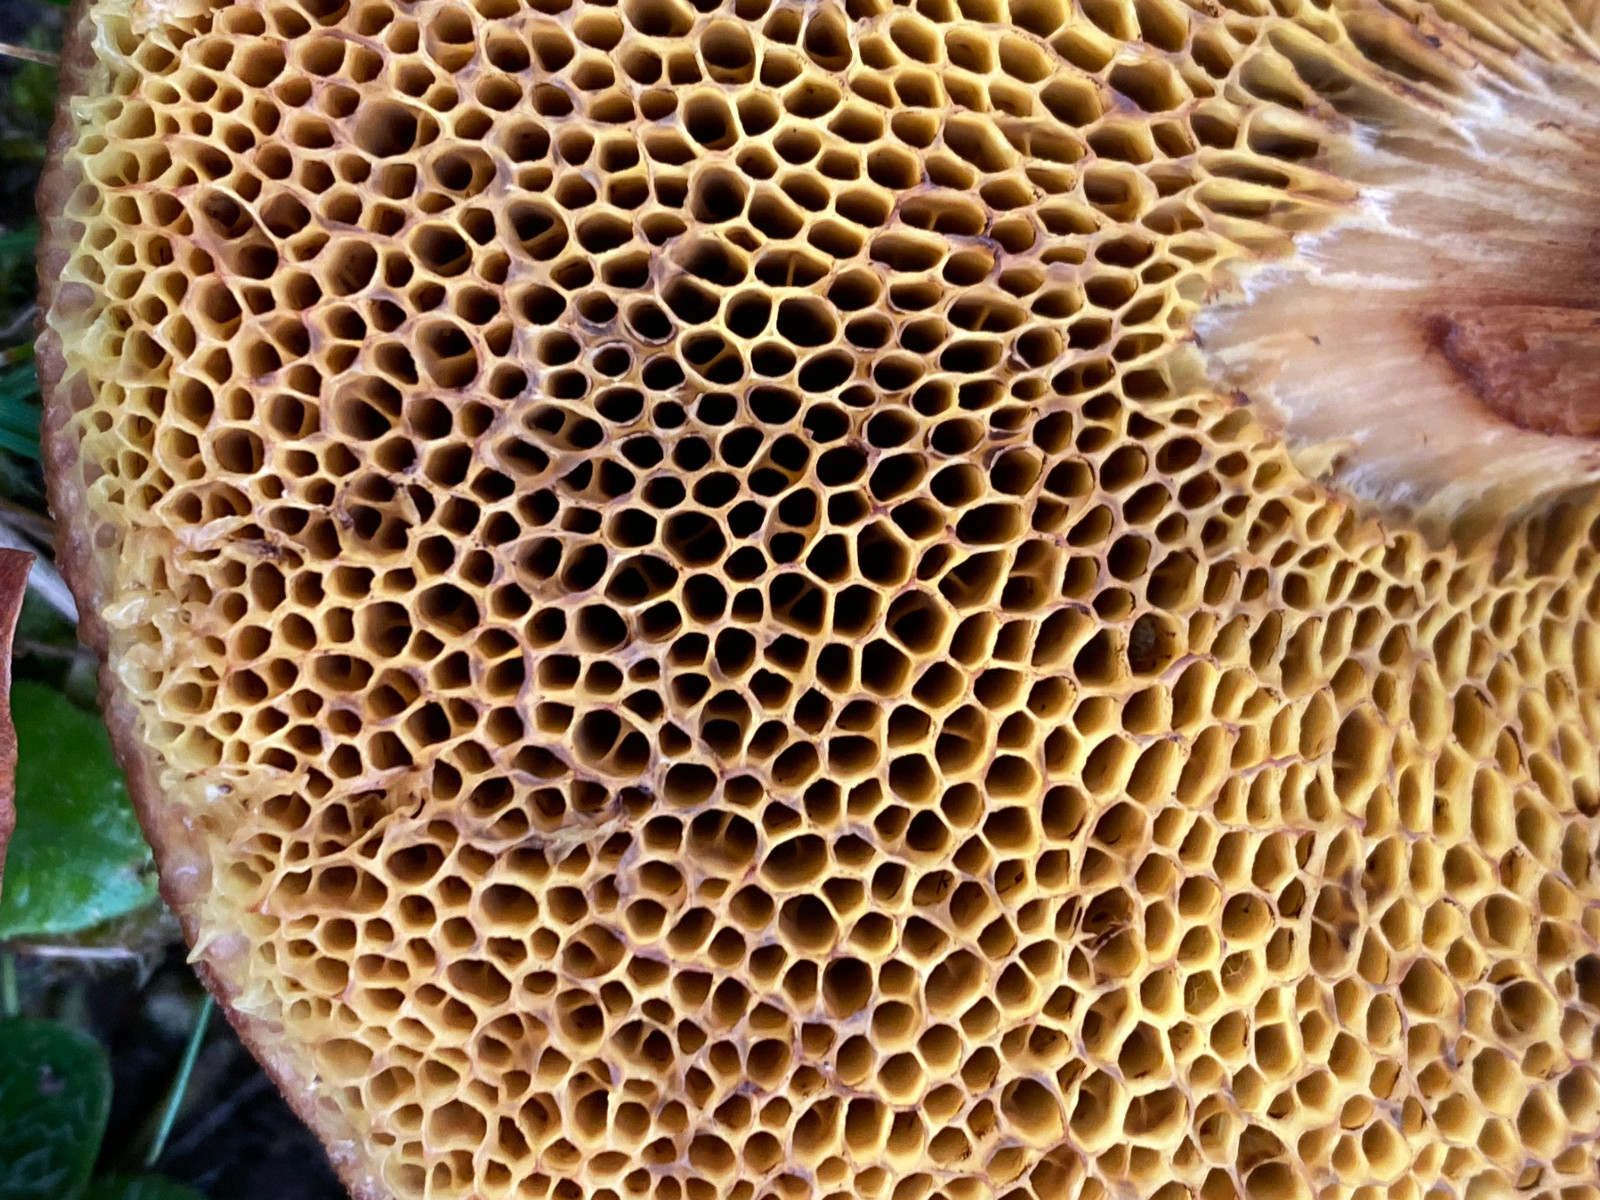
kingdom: Fungi
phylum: Basidiomycota
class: Agaricomycetes
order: Boletales
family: Boletaceae
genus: Xerocomus
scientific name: Xerocomus ferrugineus
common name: vaskeskinds-rørhat
